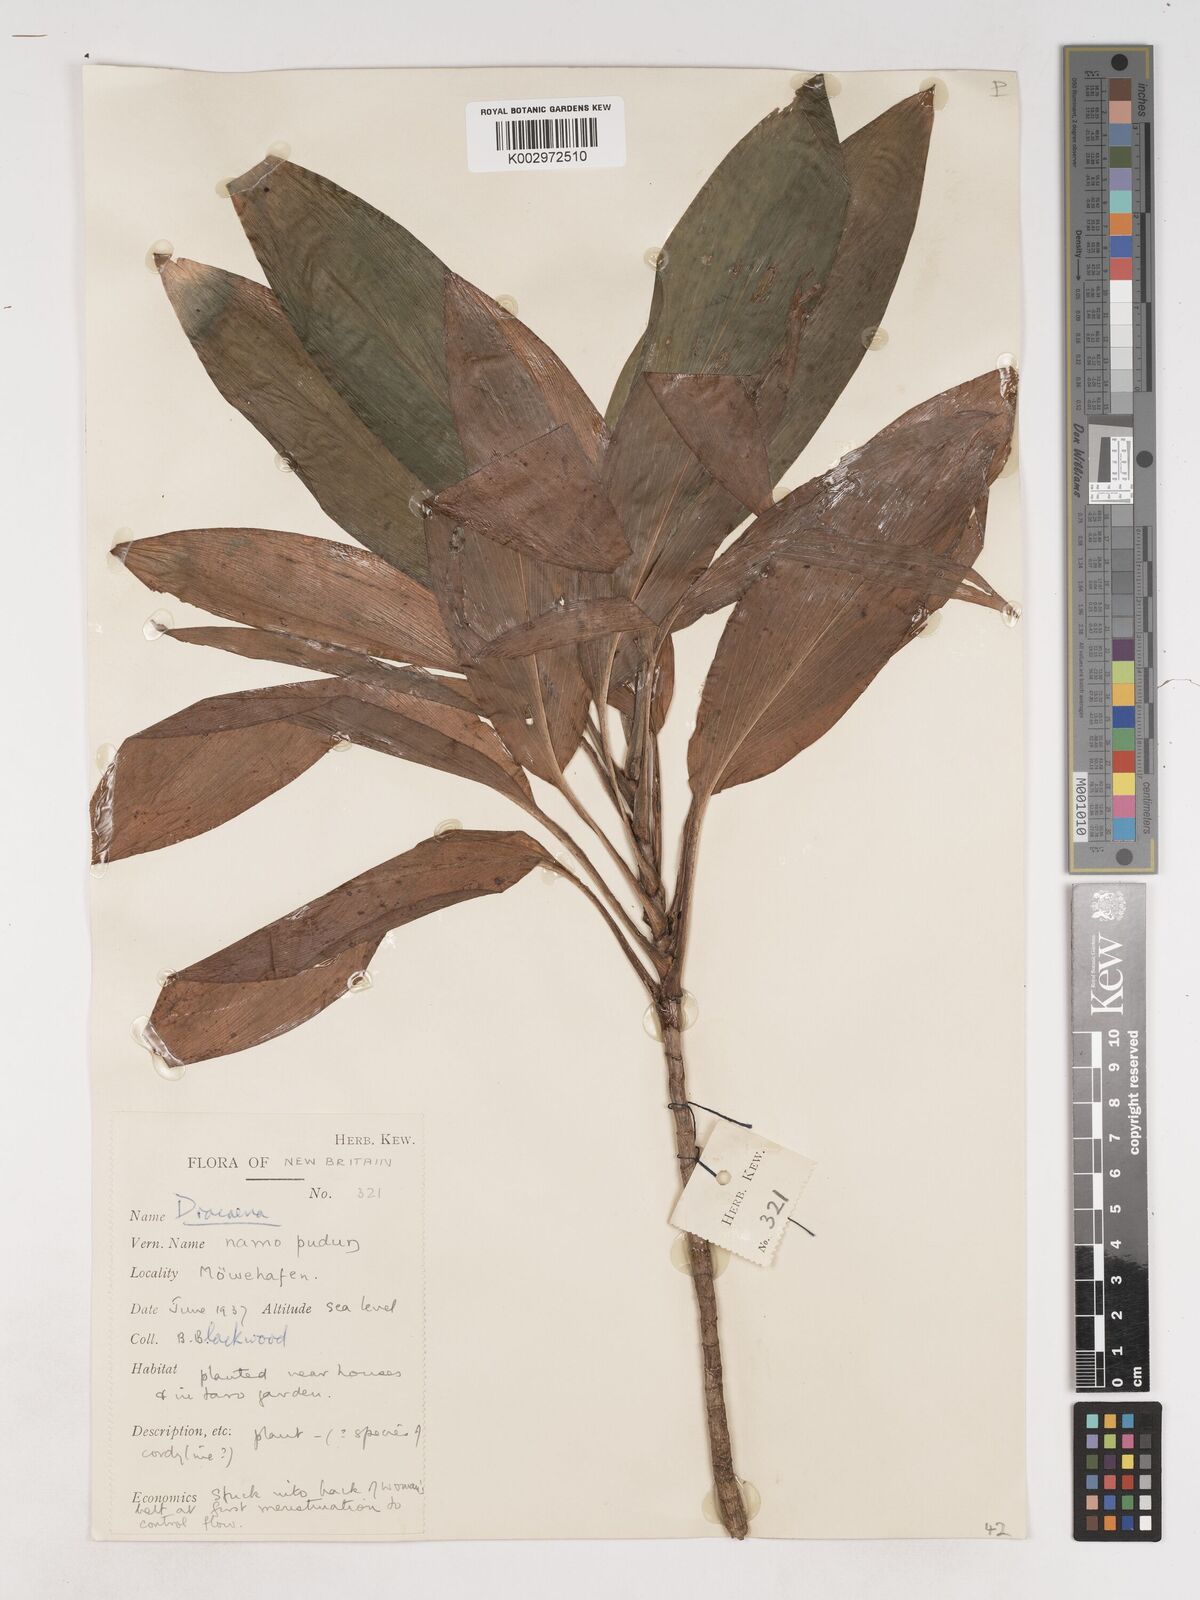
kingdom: Plantae
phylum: Tracheophyta
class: Liliopsida
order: Asparagales
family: Asparagaceae
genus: Cordyline
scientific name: Cordyline
